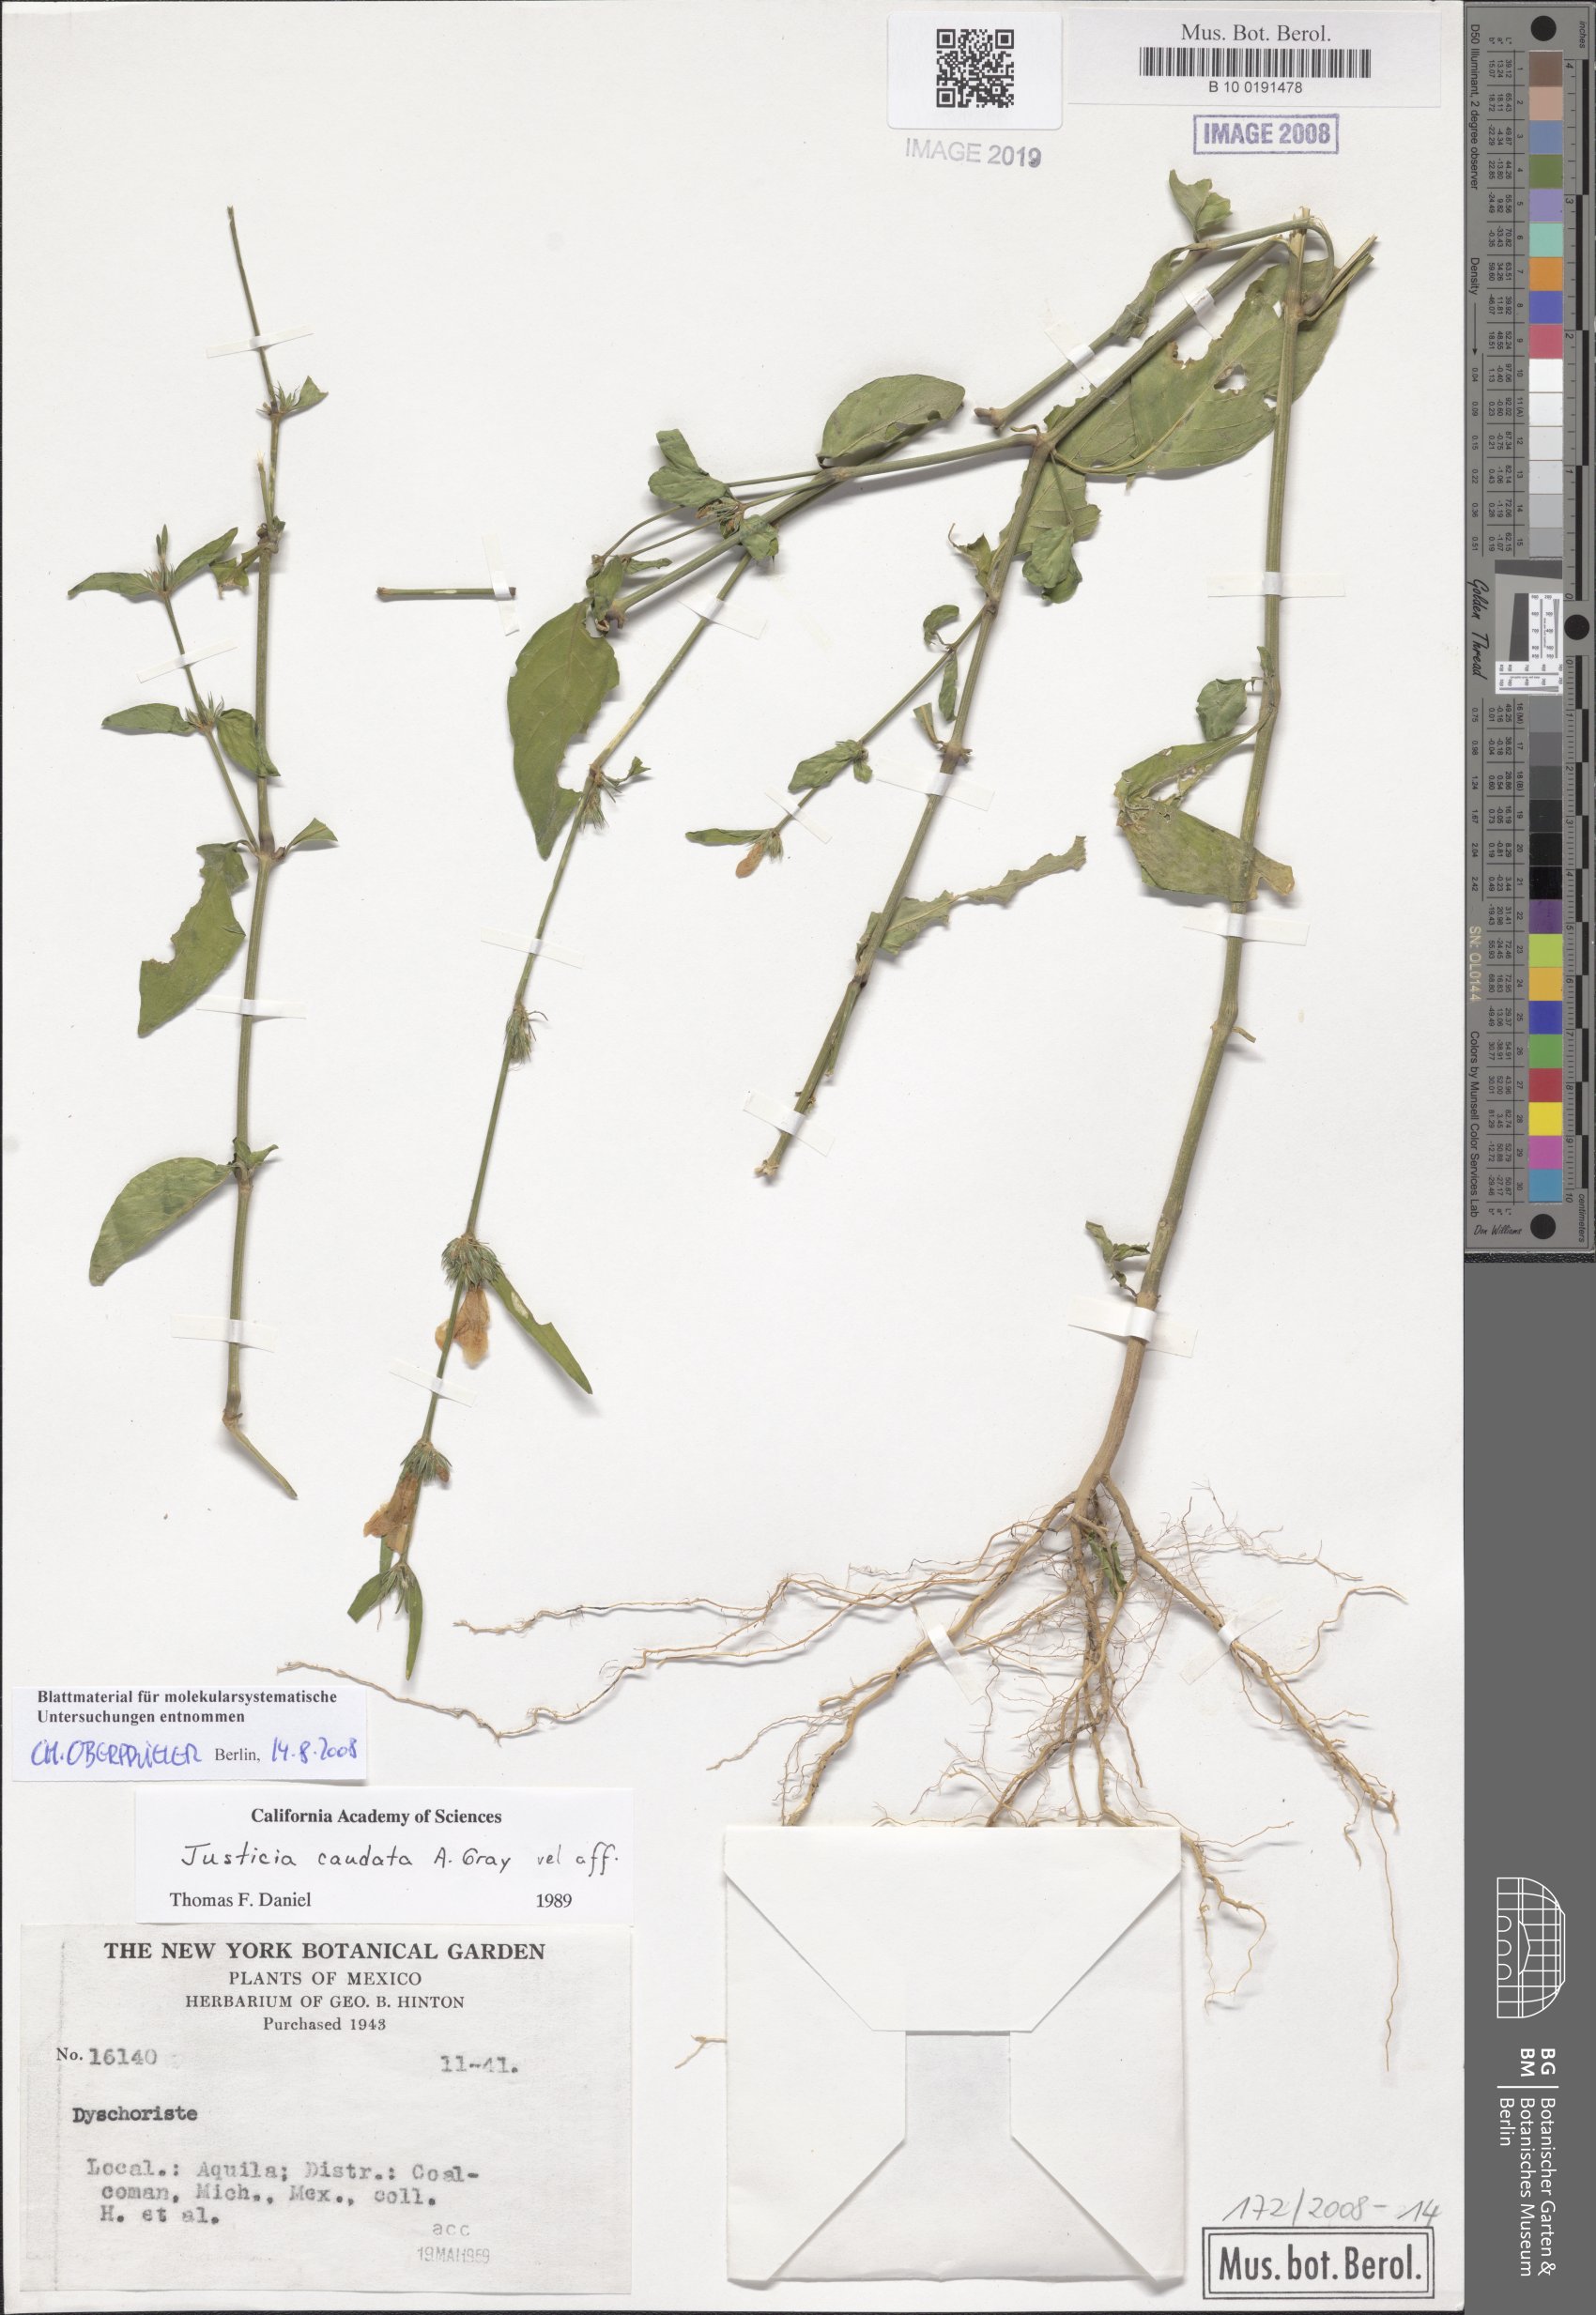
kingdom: Plantae
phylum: Tracheophyta
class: Magnoliopsida
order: Lamiales
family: Acanthaceae
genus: Justicia
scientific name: Justicia pacifica
